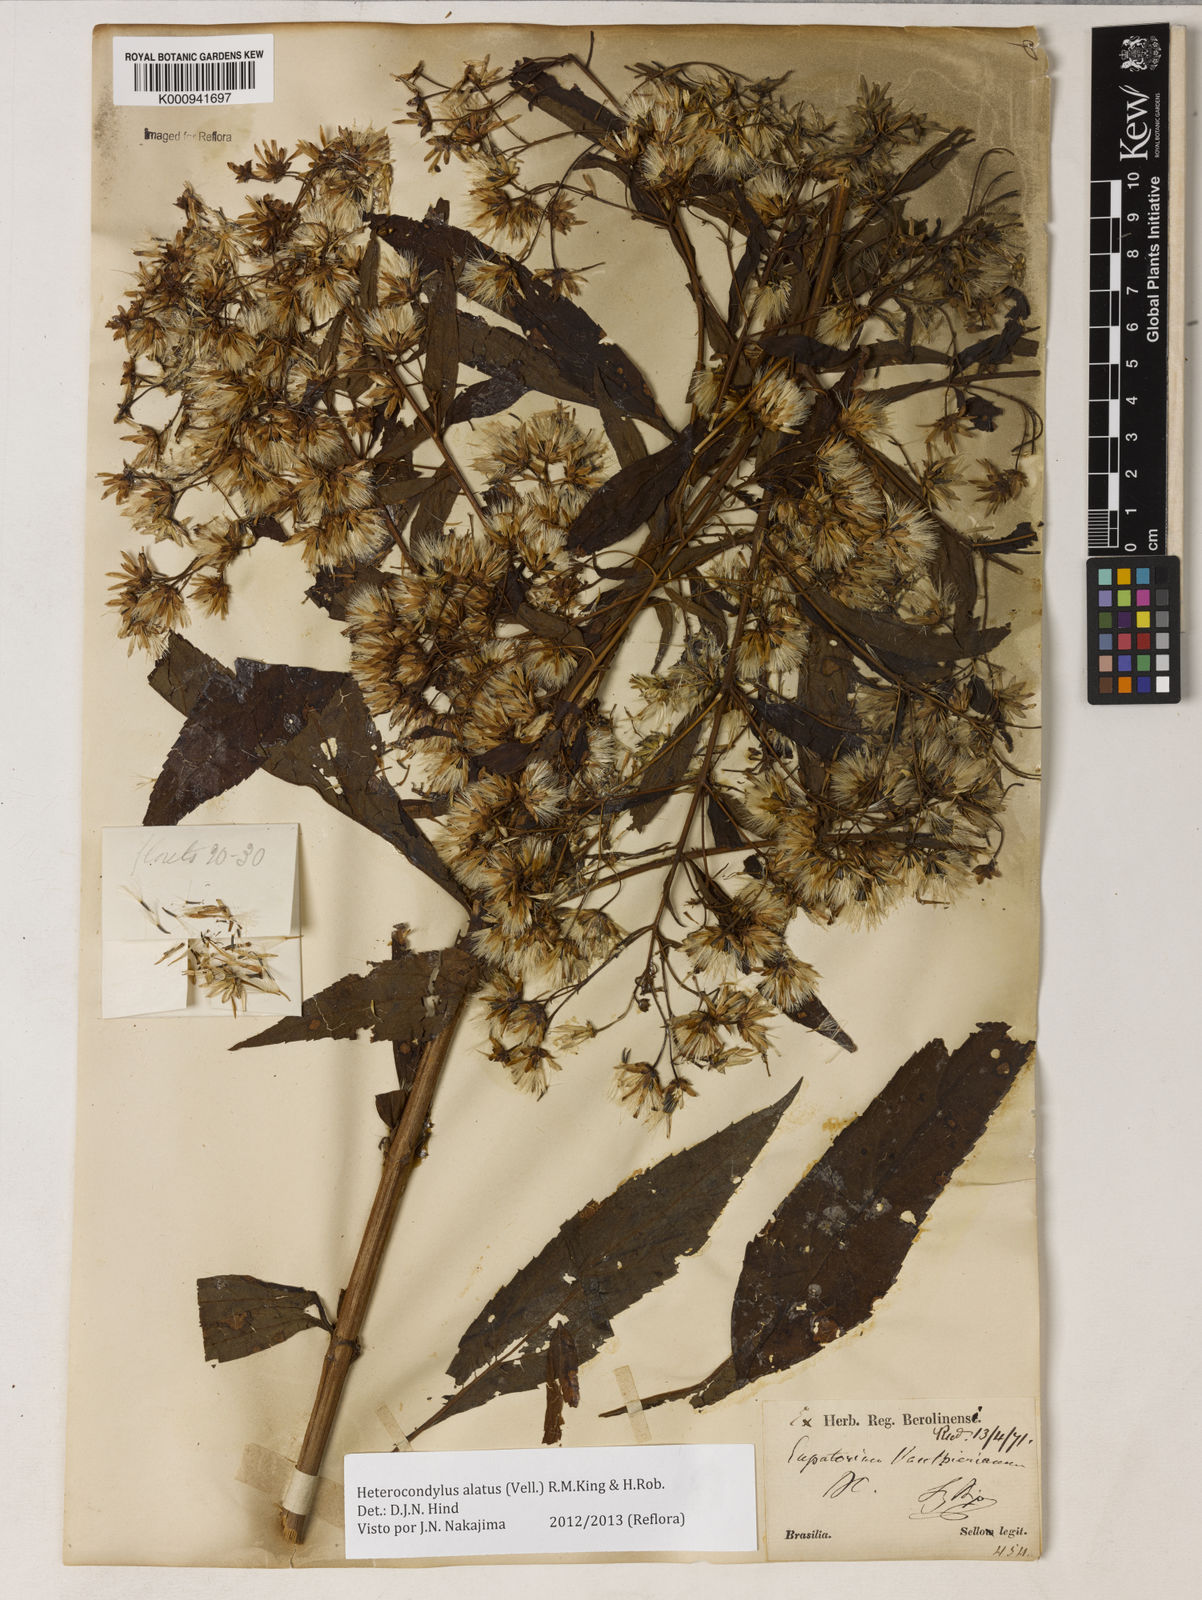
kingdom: Plantae
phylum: Tracheophyta
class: Magnoliopsida
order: Asterales
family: Asteraceae
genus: Heterocondylus
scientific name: Heterocondylus alatus
